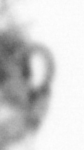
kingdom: Animalia
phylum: Annelida
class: Polychaeta
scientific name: Polychaeta
